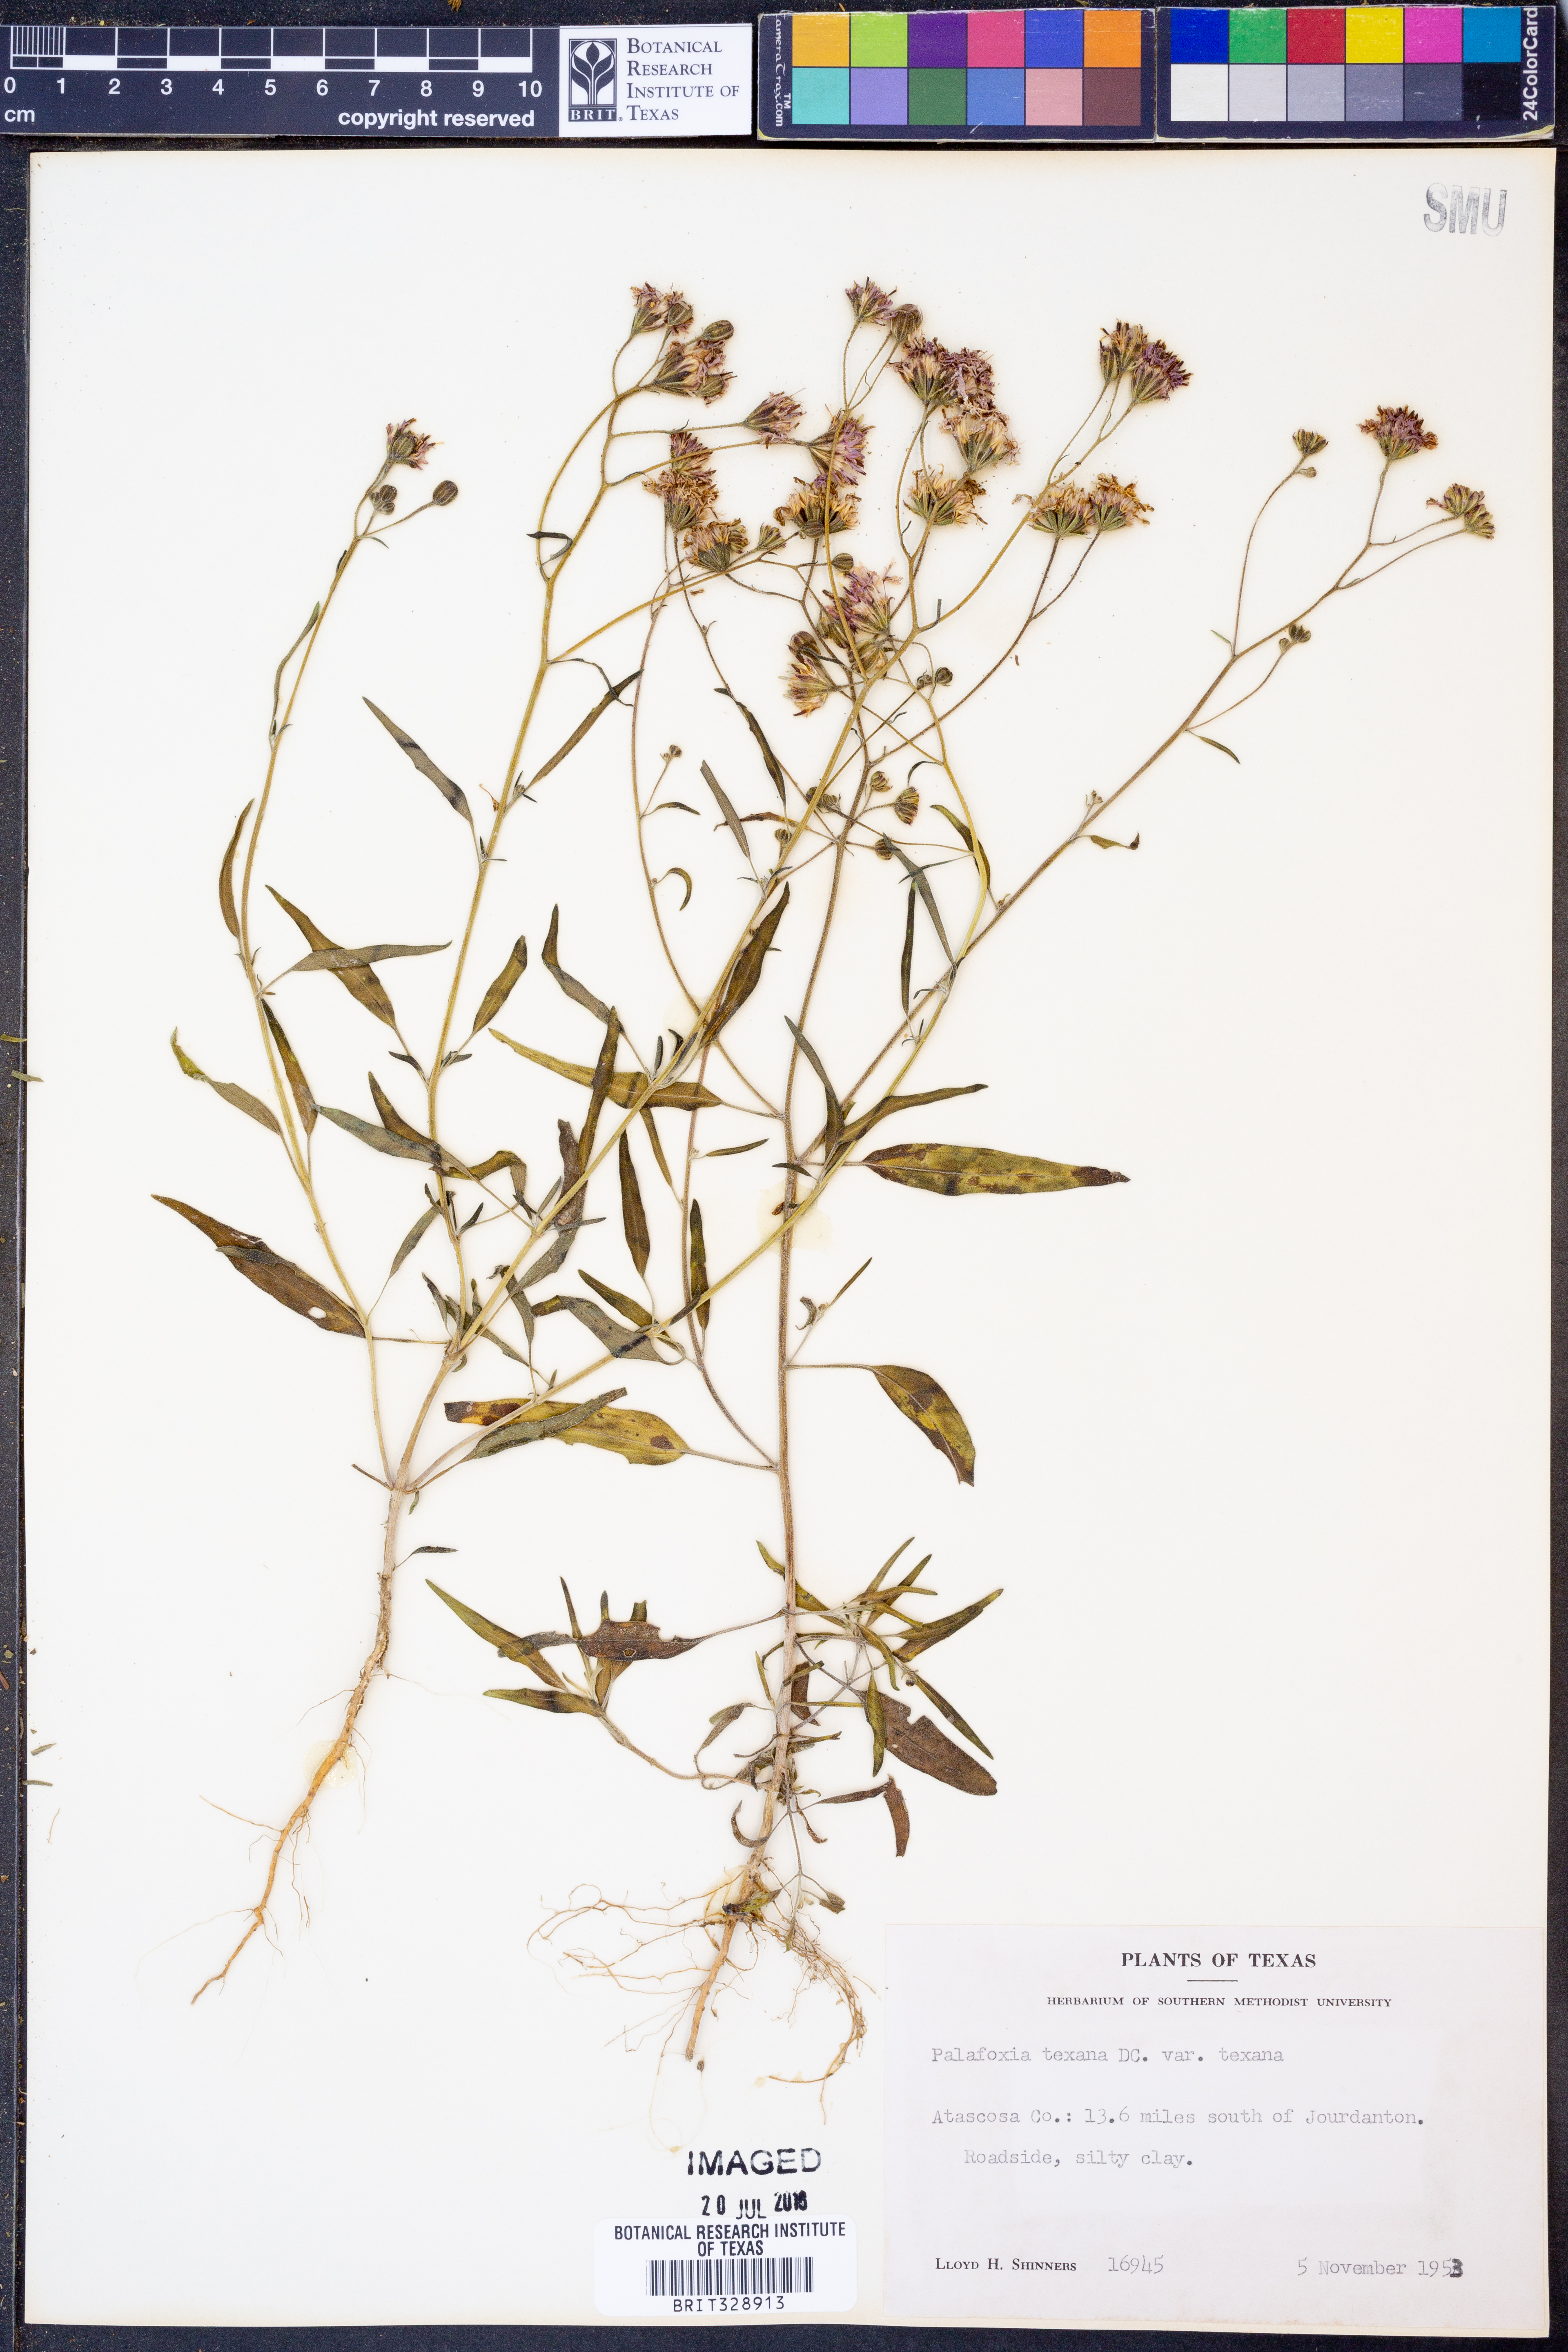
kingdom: Plantae
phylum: Tracheophyta
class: Magnoliopsida
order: Asterales
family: Asteraceae
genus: Palafoxia
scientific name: Palafoxia texana
